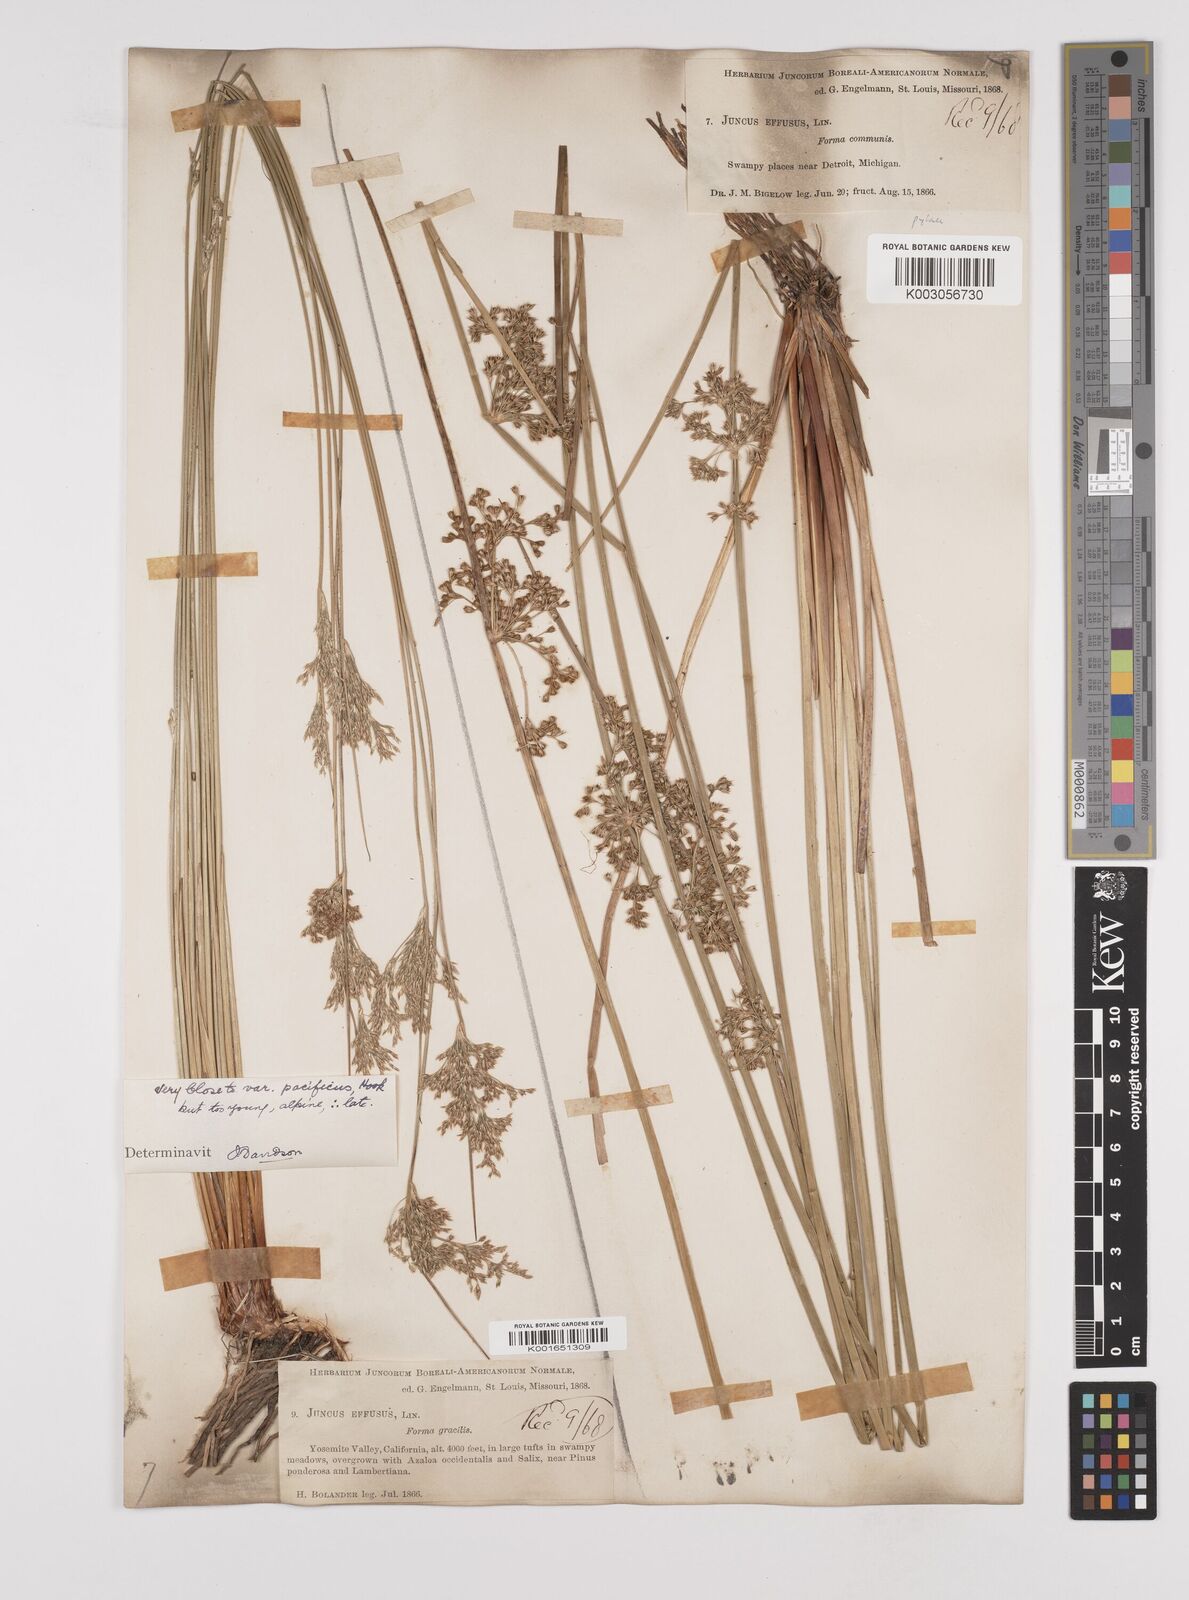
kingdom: Plantae
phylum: Tracheophyta
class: Liliopsida
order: Poales
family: Juncaceae
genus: Juncus
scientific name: Juncus effusus
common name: Soft rush
